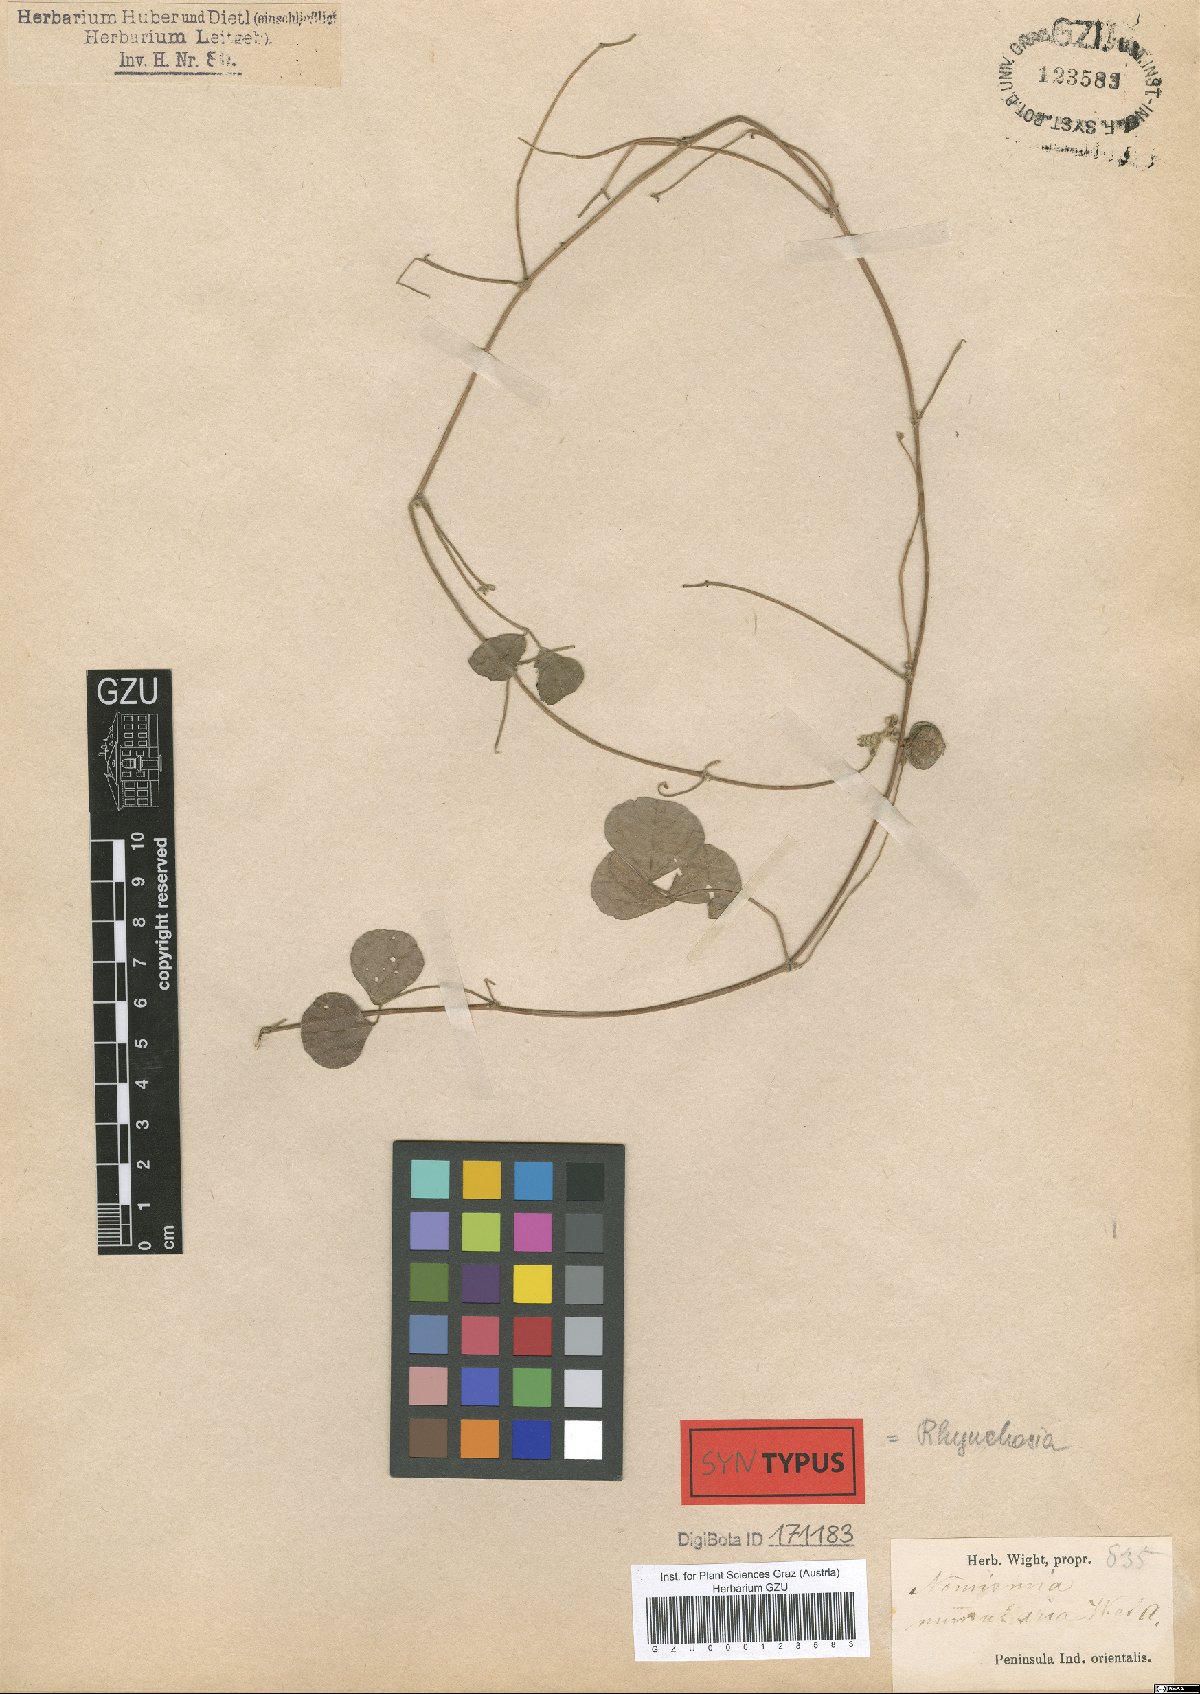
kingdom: Plantae
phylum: Tracheophyta
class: Magnoliopsida
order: Fabales
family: Fabaceae
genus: Rhynchosia
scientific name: Rhynchosia nummularia
